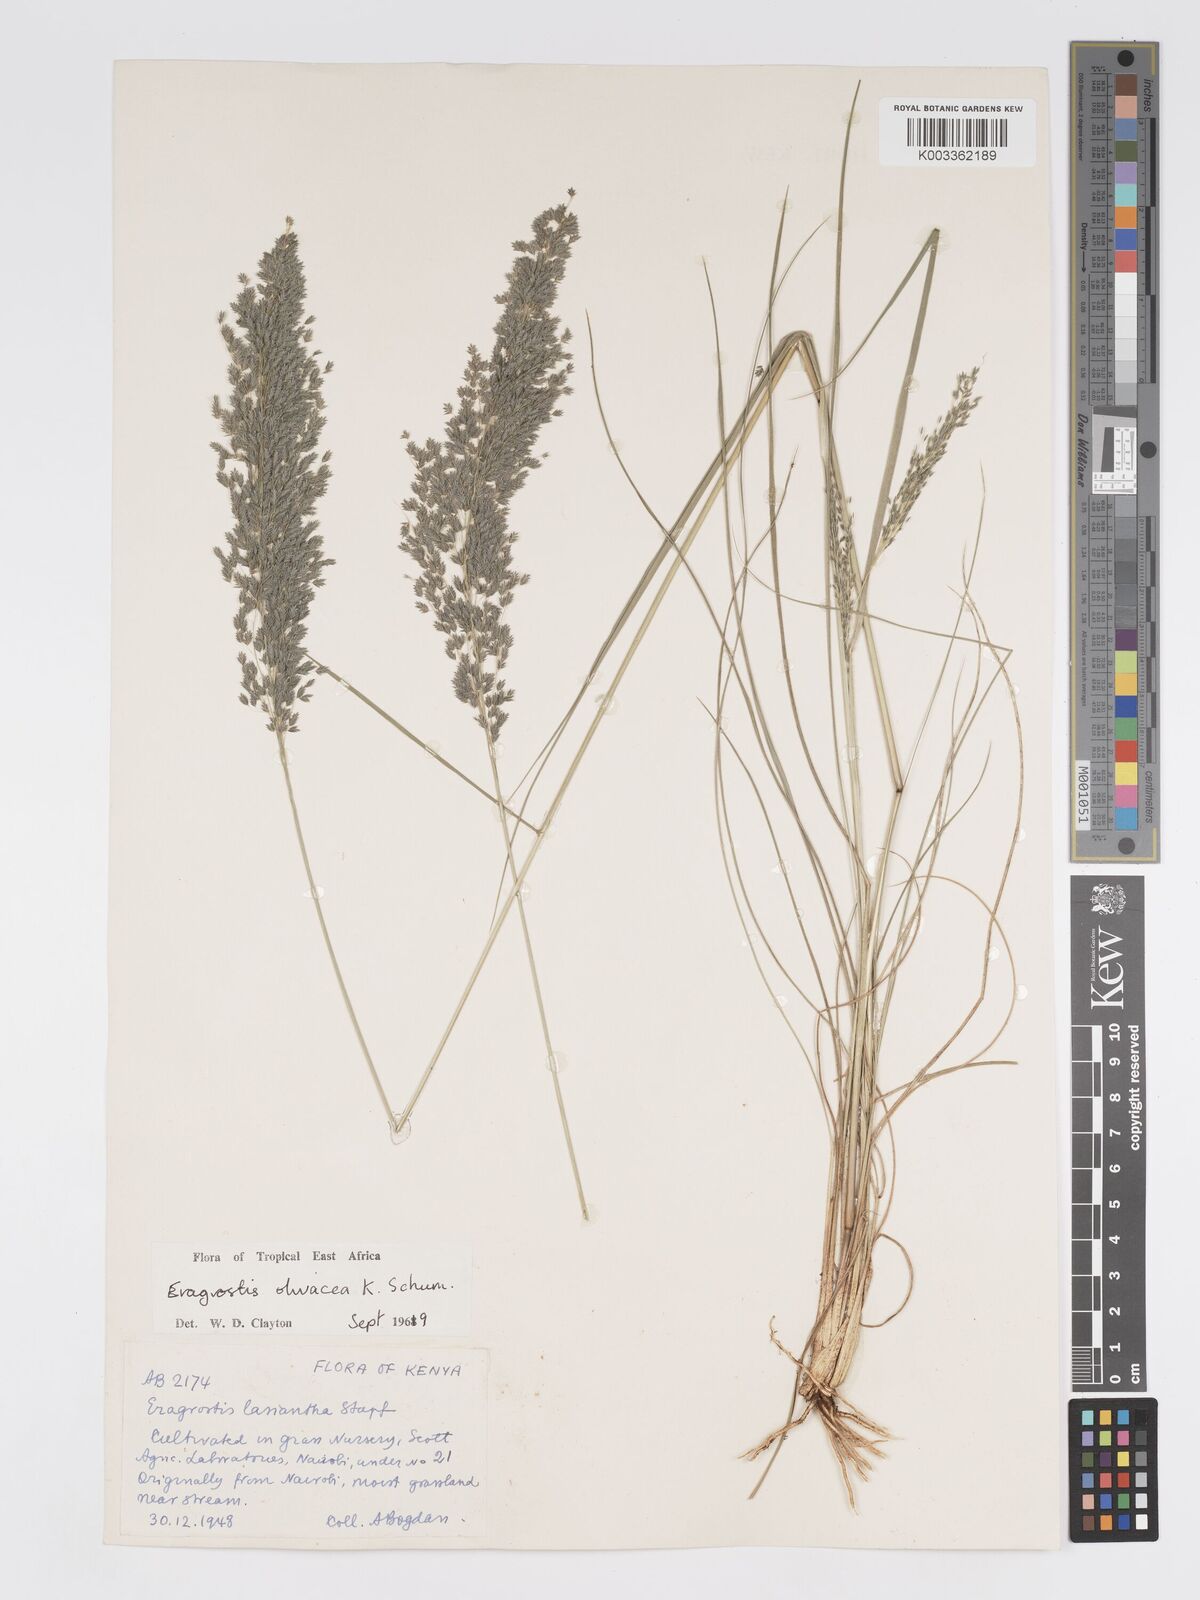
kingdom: Plantae
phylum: Tracheophyta
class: Liliopsida
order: Poales
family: Poaceae
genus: Eragrostis
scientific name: Eragrostis olivacea
